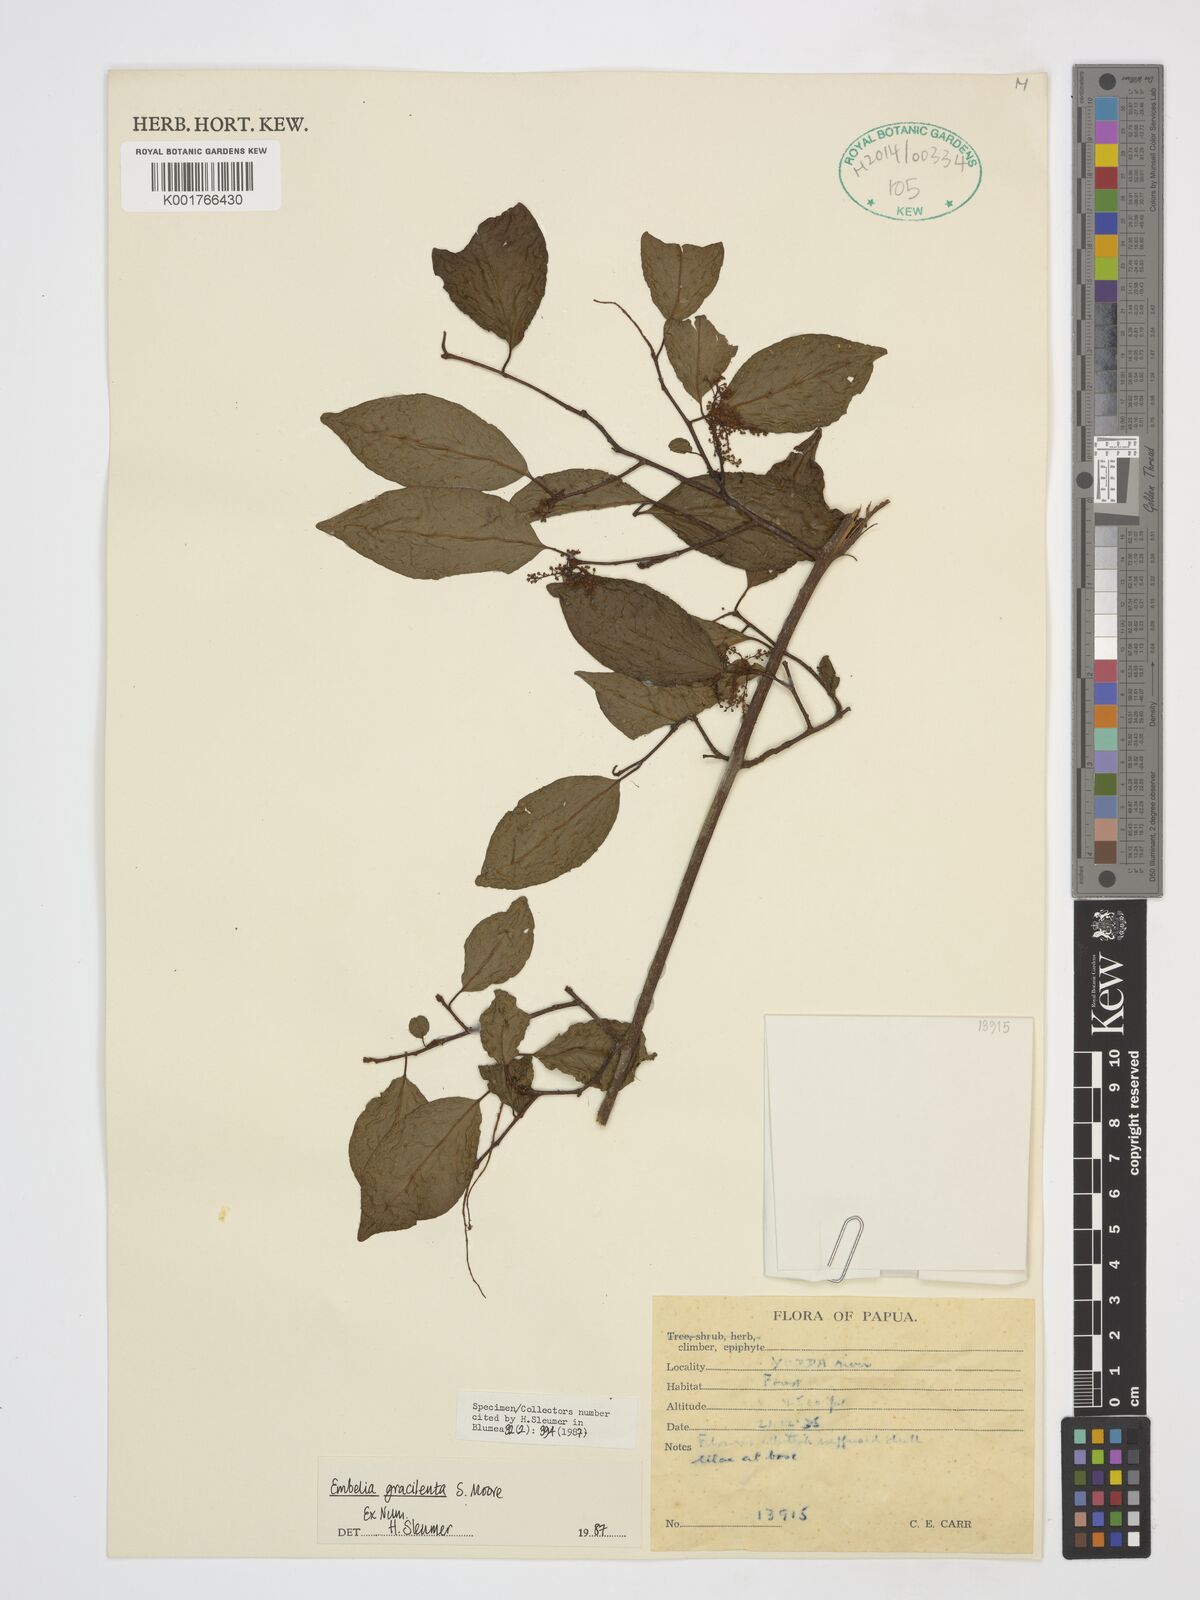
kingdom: Plantae
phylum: Tracheophyta
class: Magnoliopsida
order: Ericales
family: Primulaceae
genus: Embelia
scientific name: Embelia gracilenta
